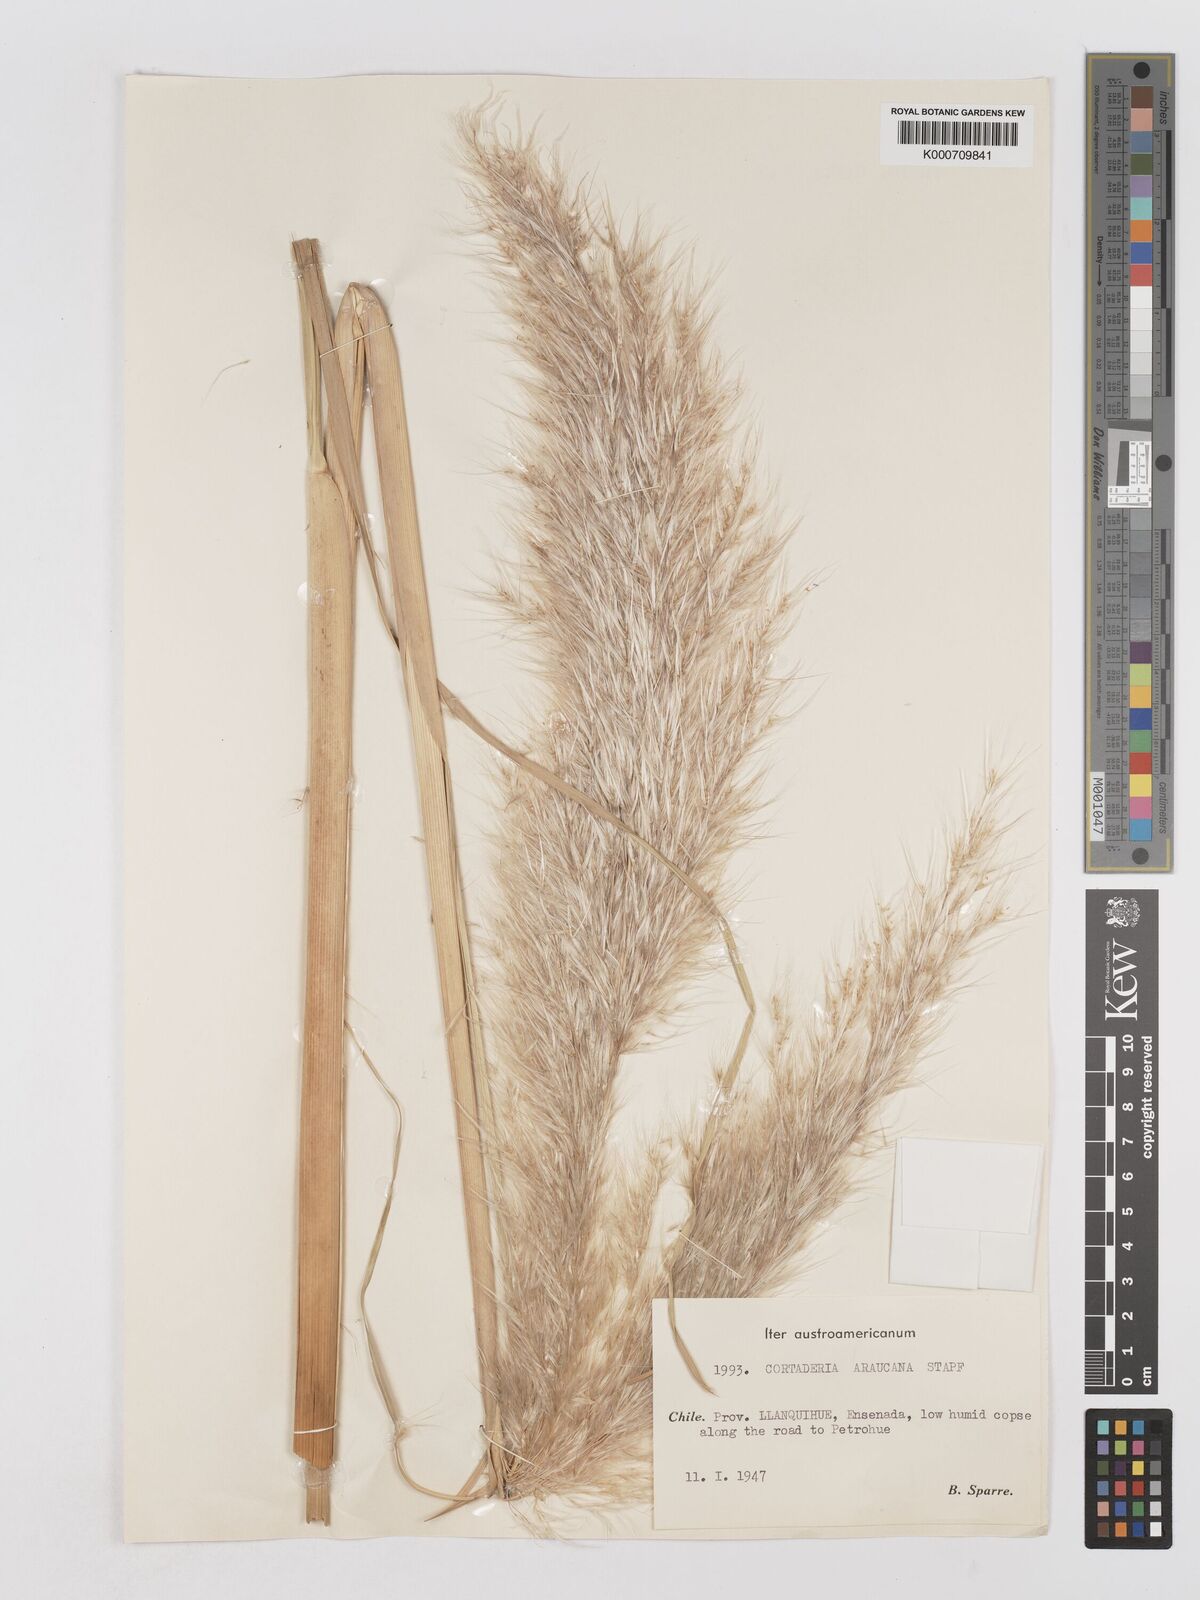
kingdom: Plantae
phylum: Tracheophyta
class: Liliopsida
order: Poales
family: Poaceae
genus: Cortaderia
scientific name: Cortaderia araucana
